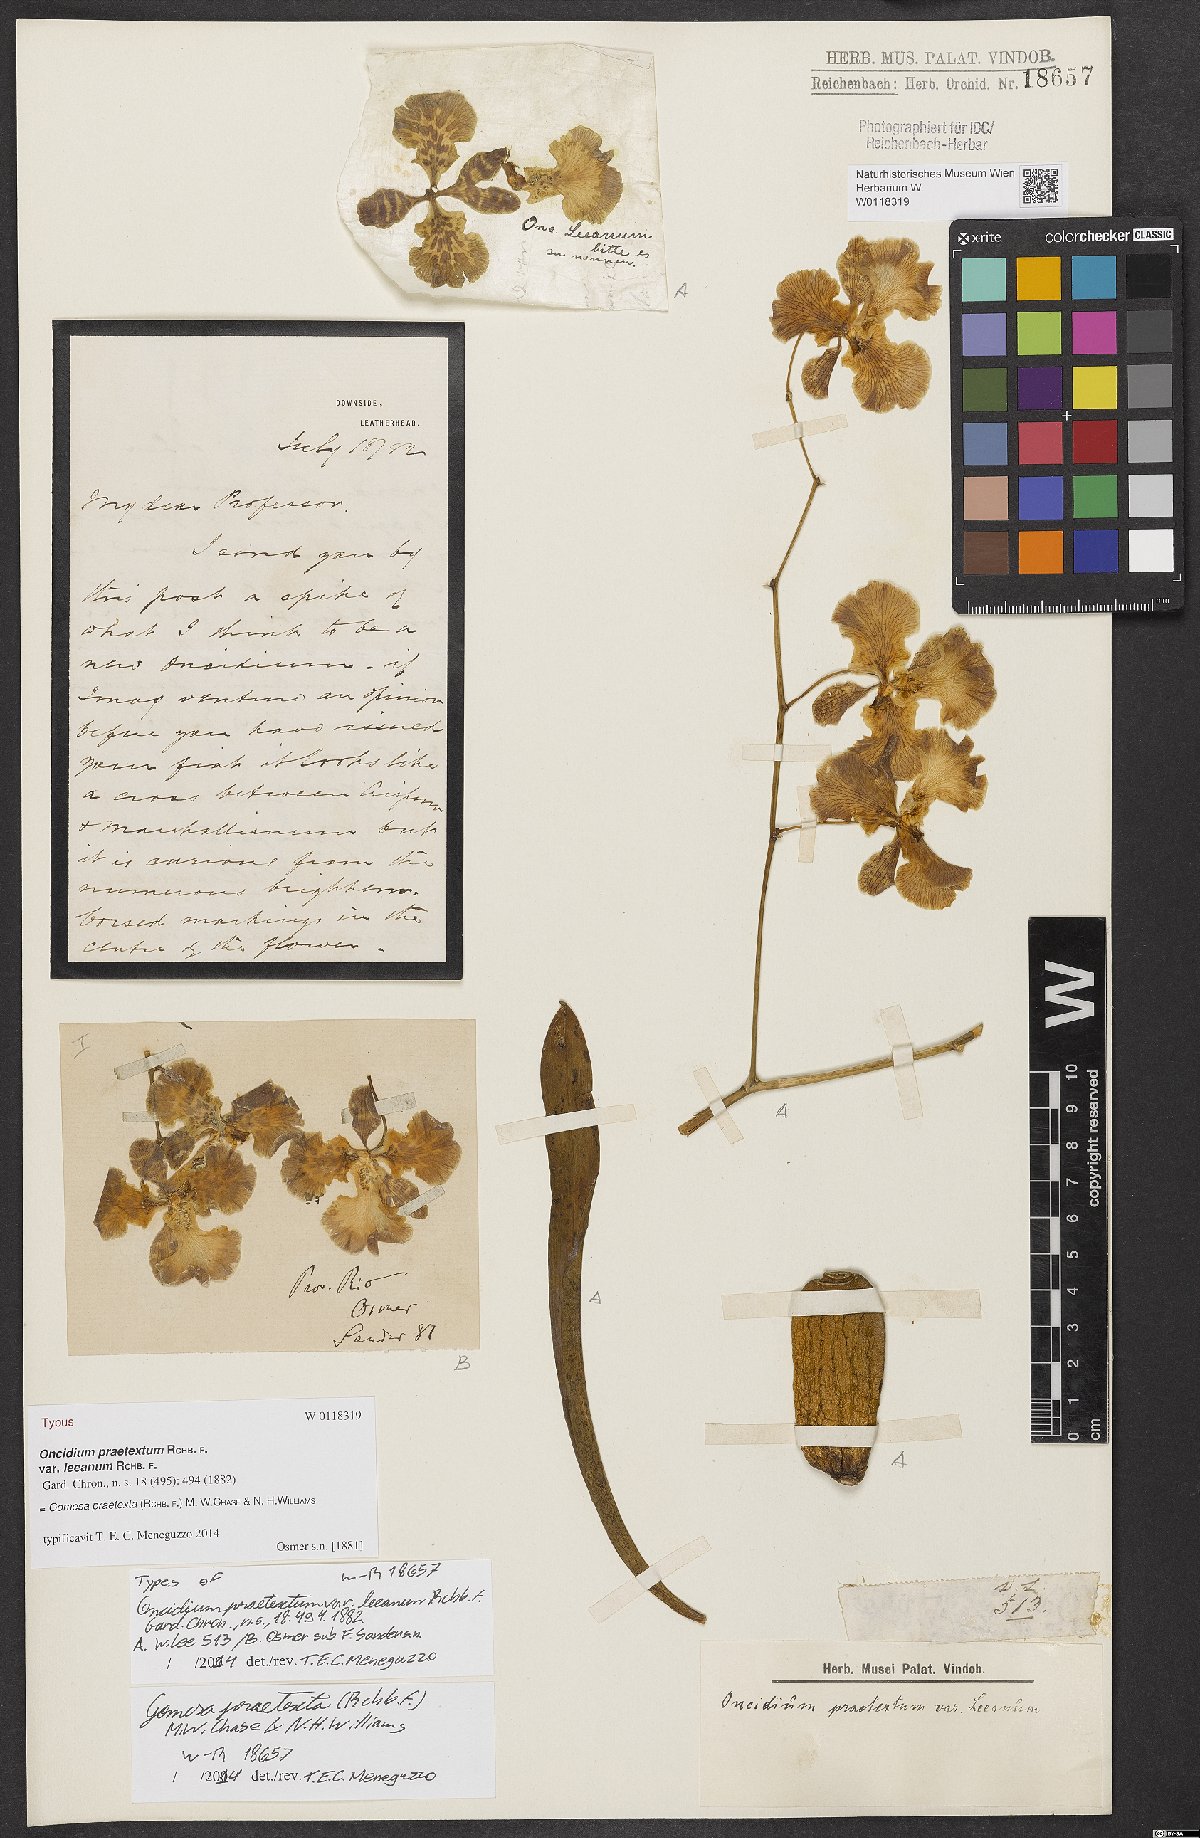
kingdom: Plantae
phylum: Tracheophyta
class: Liliopsida
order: Asparagales
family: Orchidaceae
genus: Gomesa
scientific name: Gomesa praetexta
